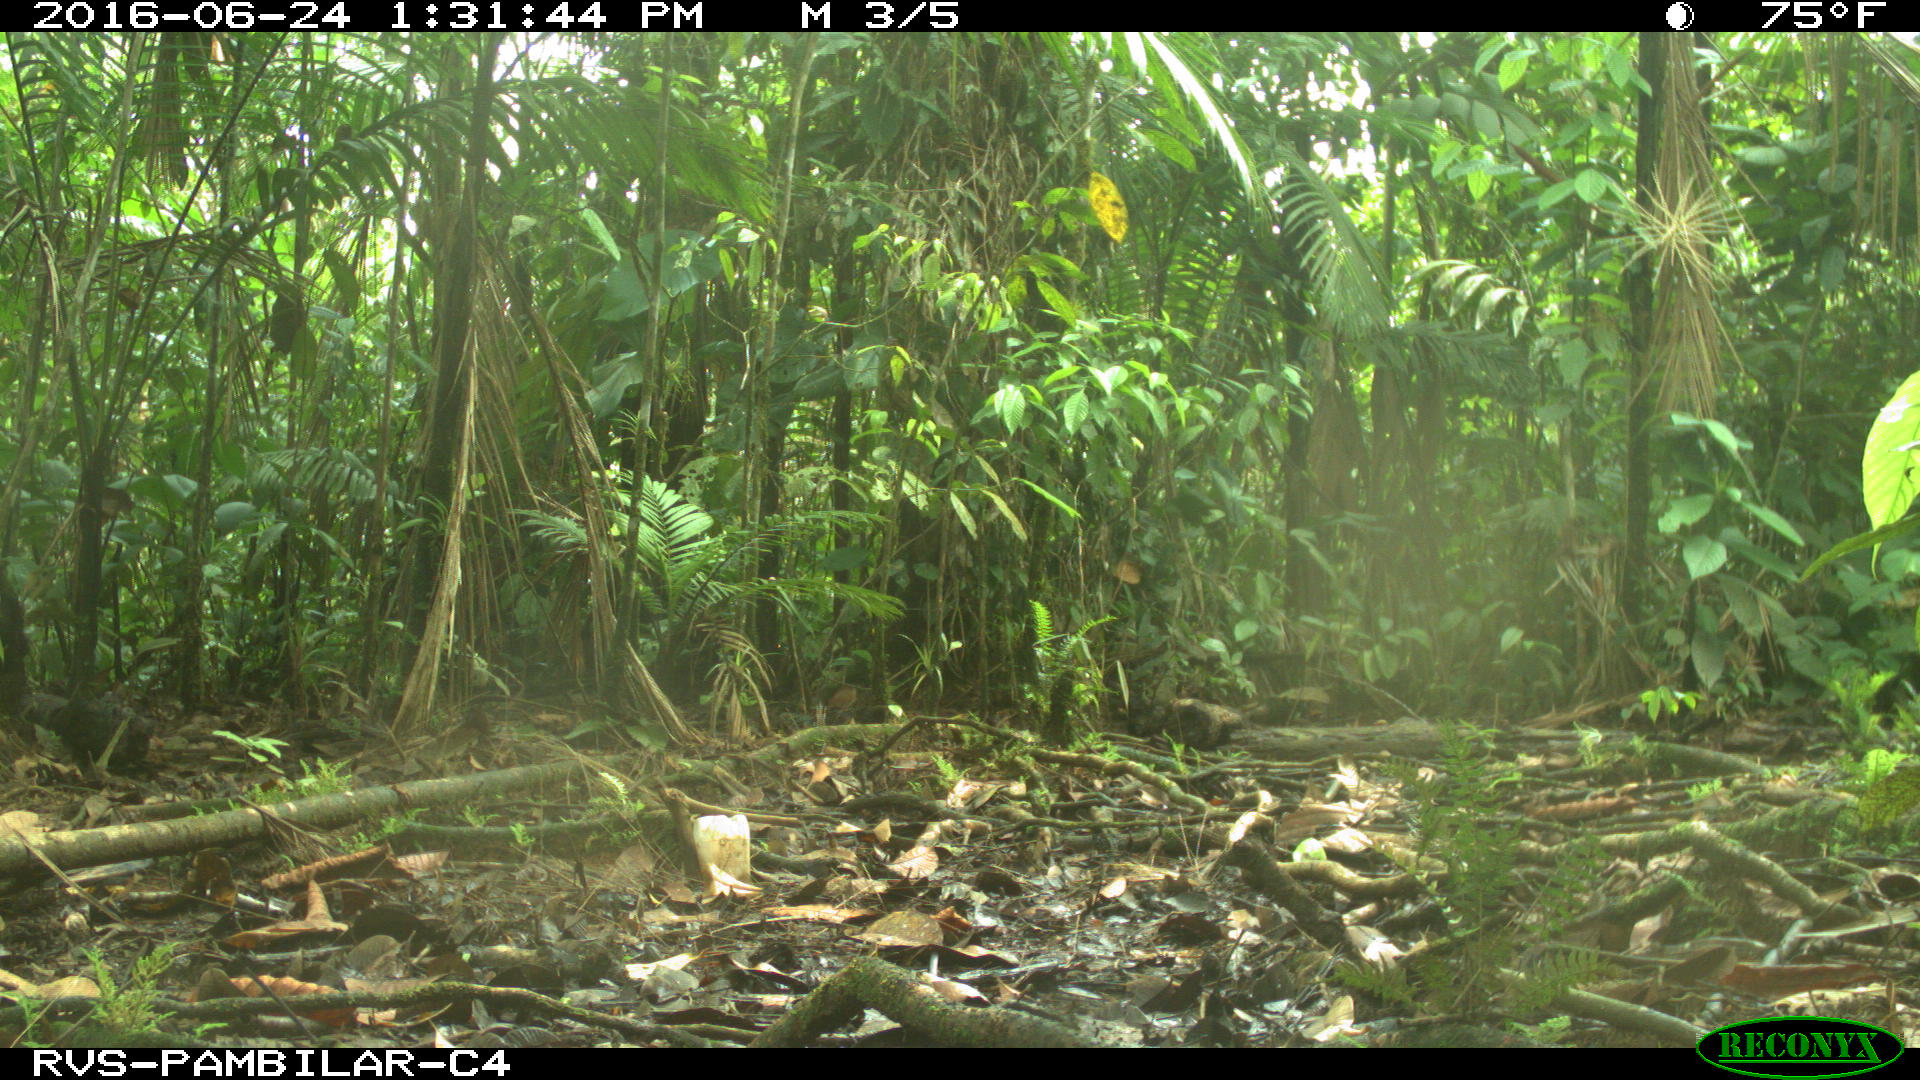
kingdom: Animalia
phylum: Chordata
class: Mammalia
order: Rodentia
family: Dasyproctidae
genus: Dasyprocta
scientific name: Dasyprocta punctata
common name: Central american agouti
